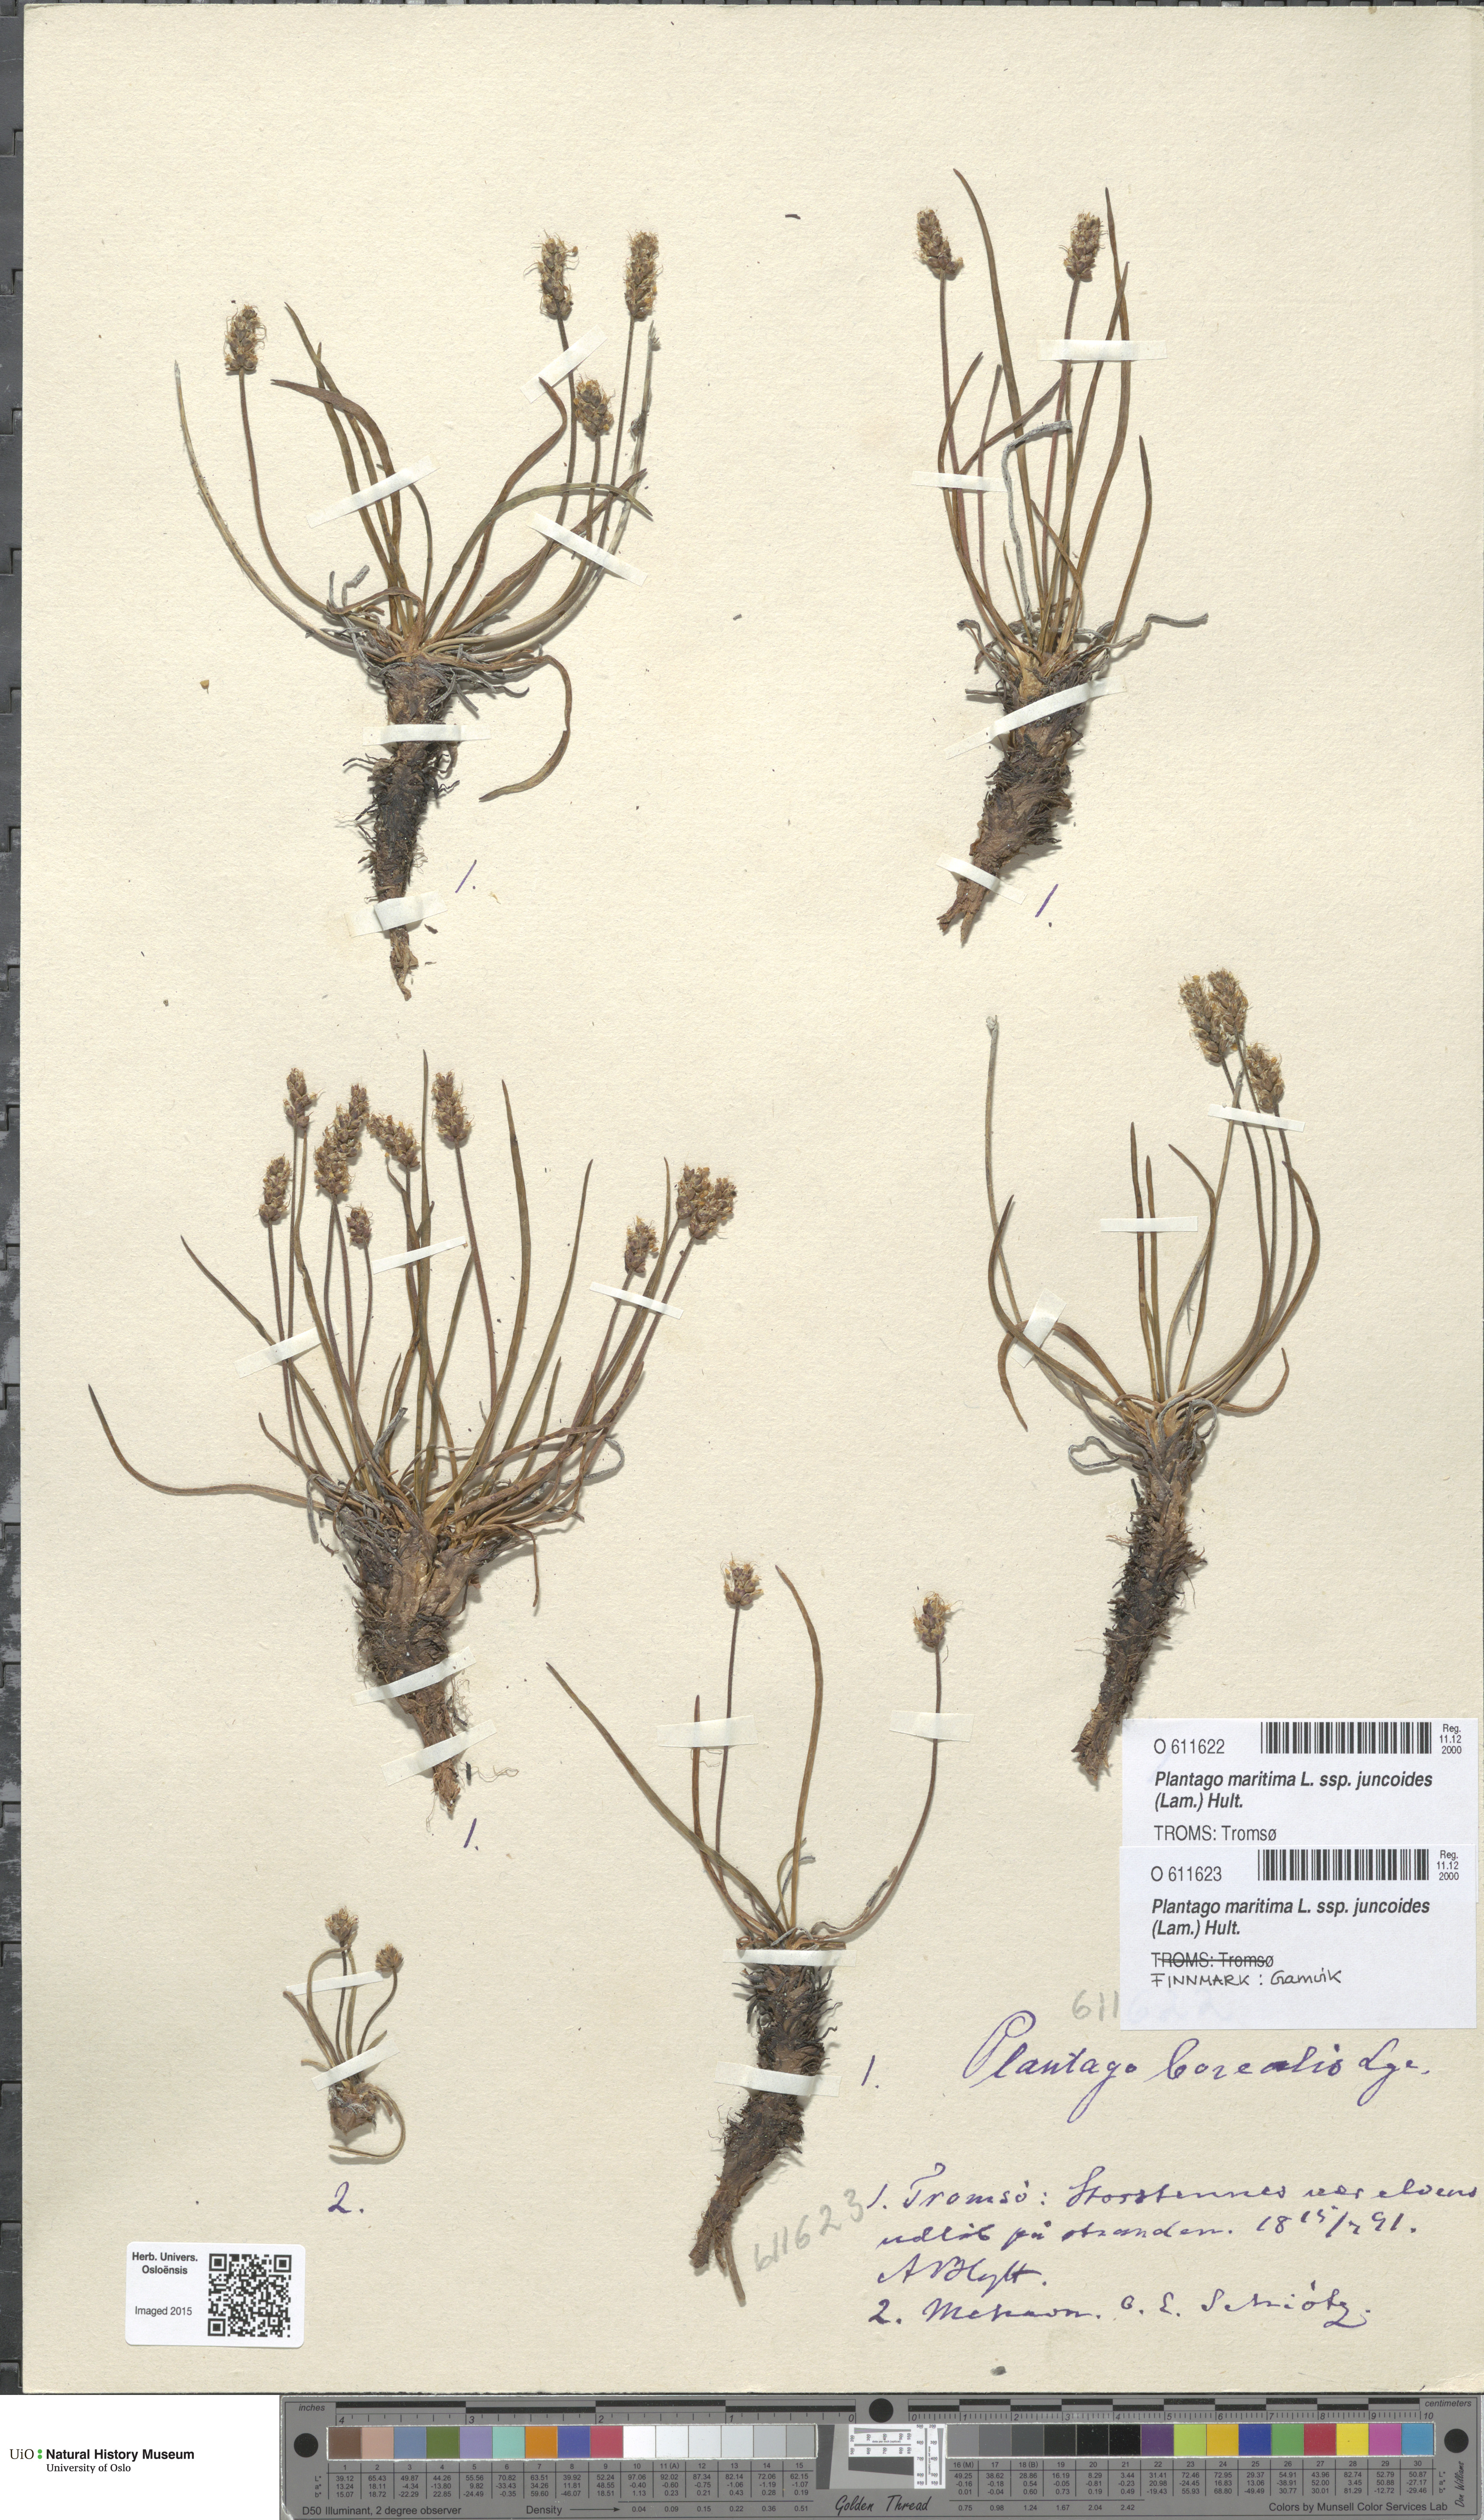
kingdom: Plantae
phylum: Tracheophyta
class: Magnoliopsida
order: Lamiales
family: Plantaginaceae
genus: Plantago
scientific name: Plantago maritima
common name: Sea plantain
